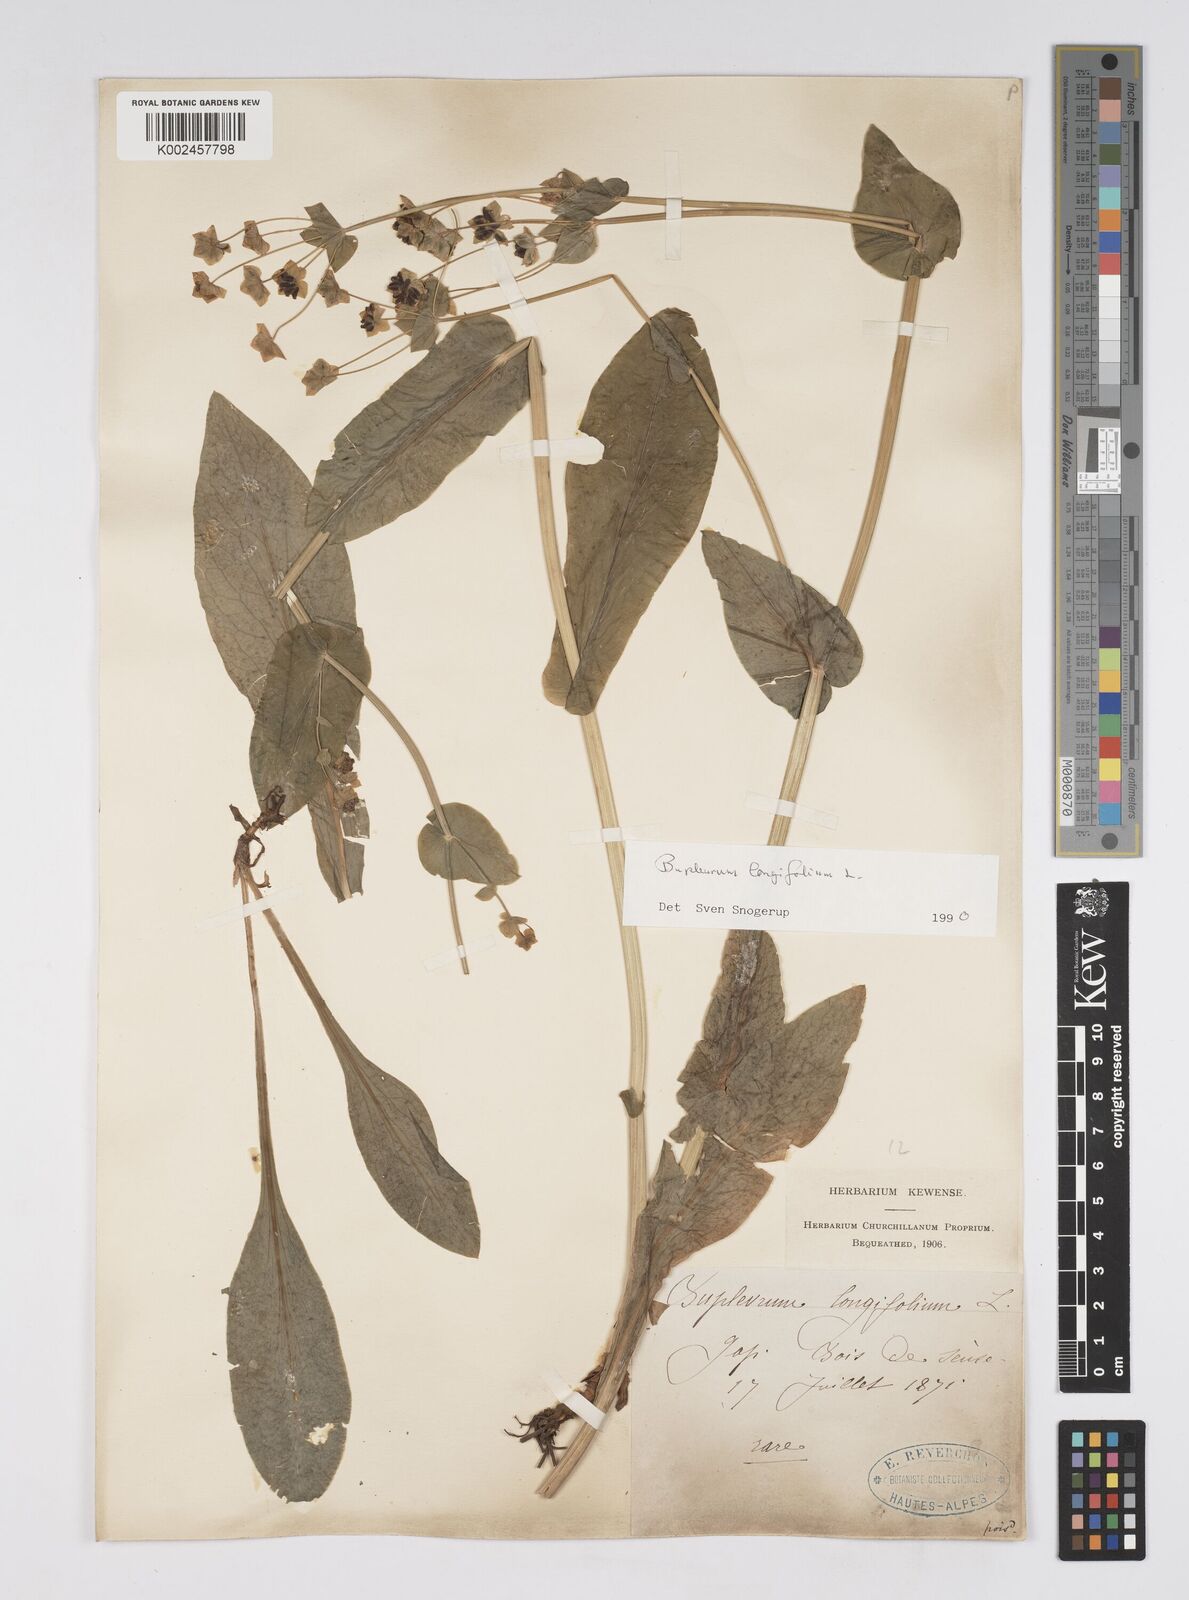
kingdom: Plantae
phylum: Tracheophyta
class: Magnoliopsida
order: Apiales
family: Apiaceae
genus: Bupleurum
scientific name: Bupleurum longifolium
